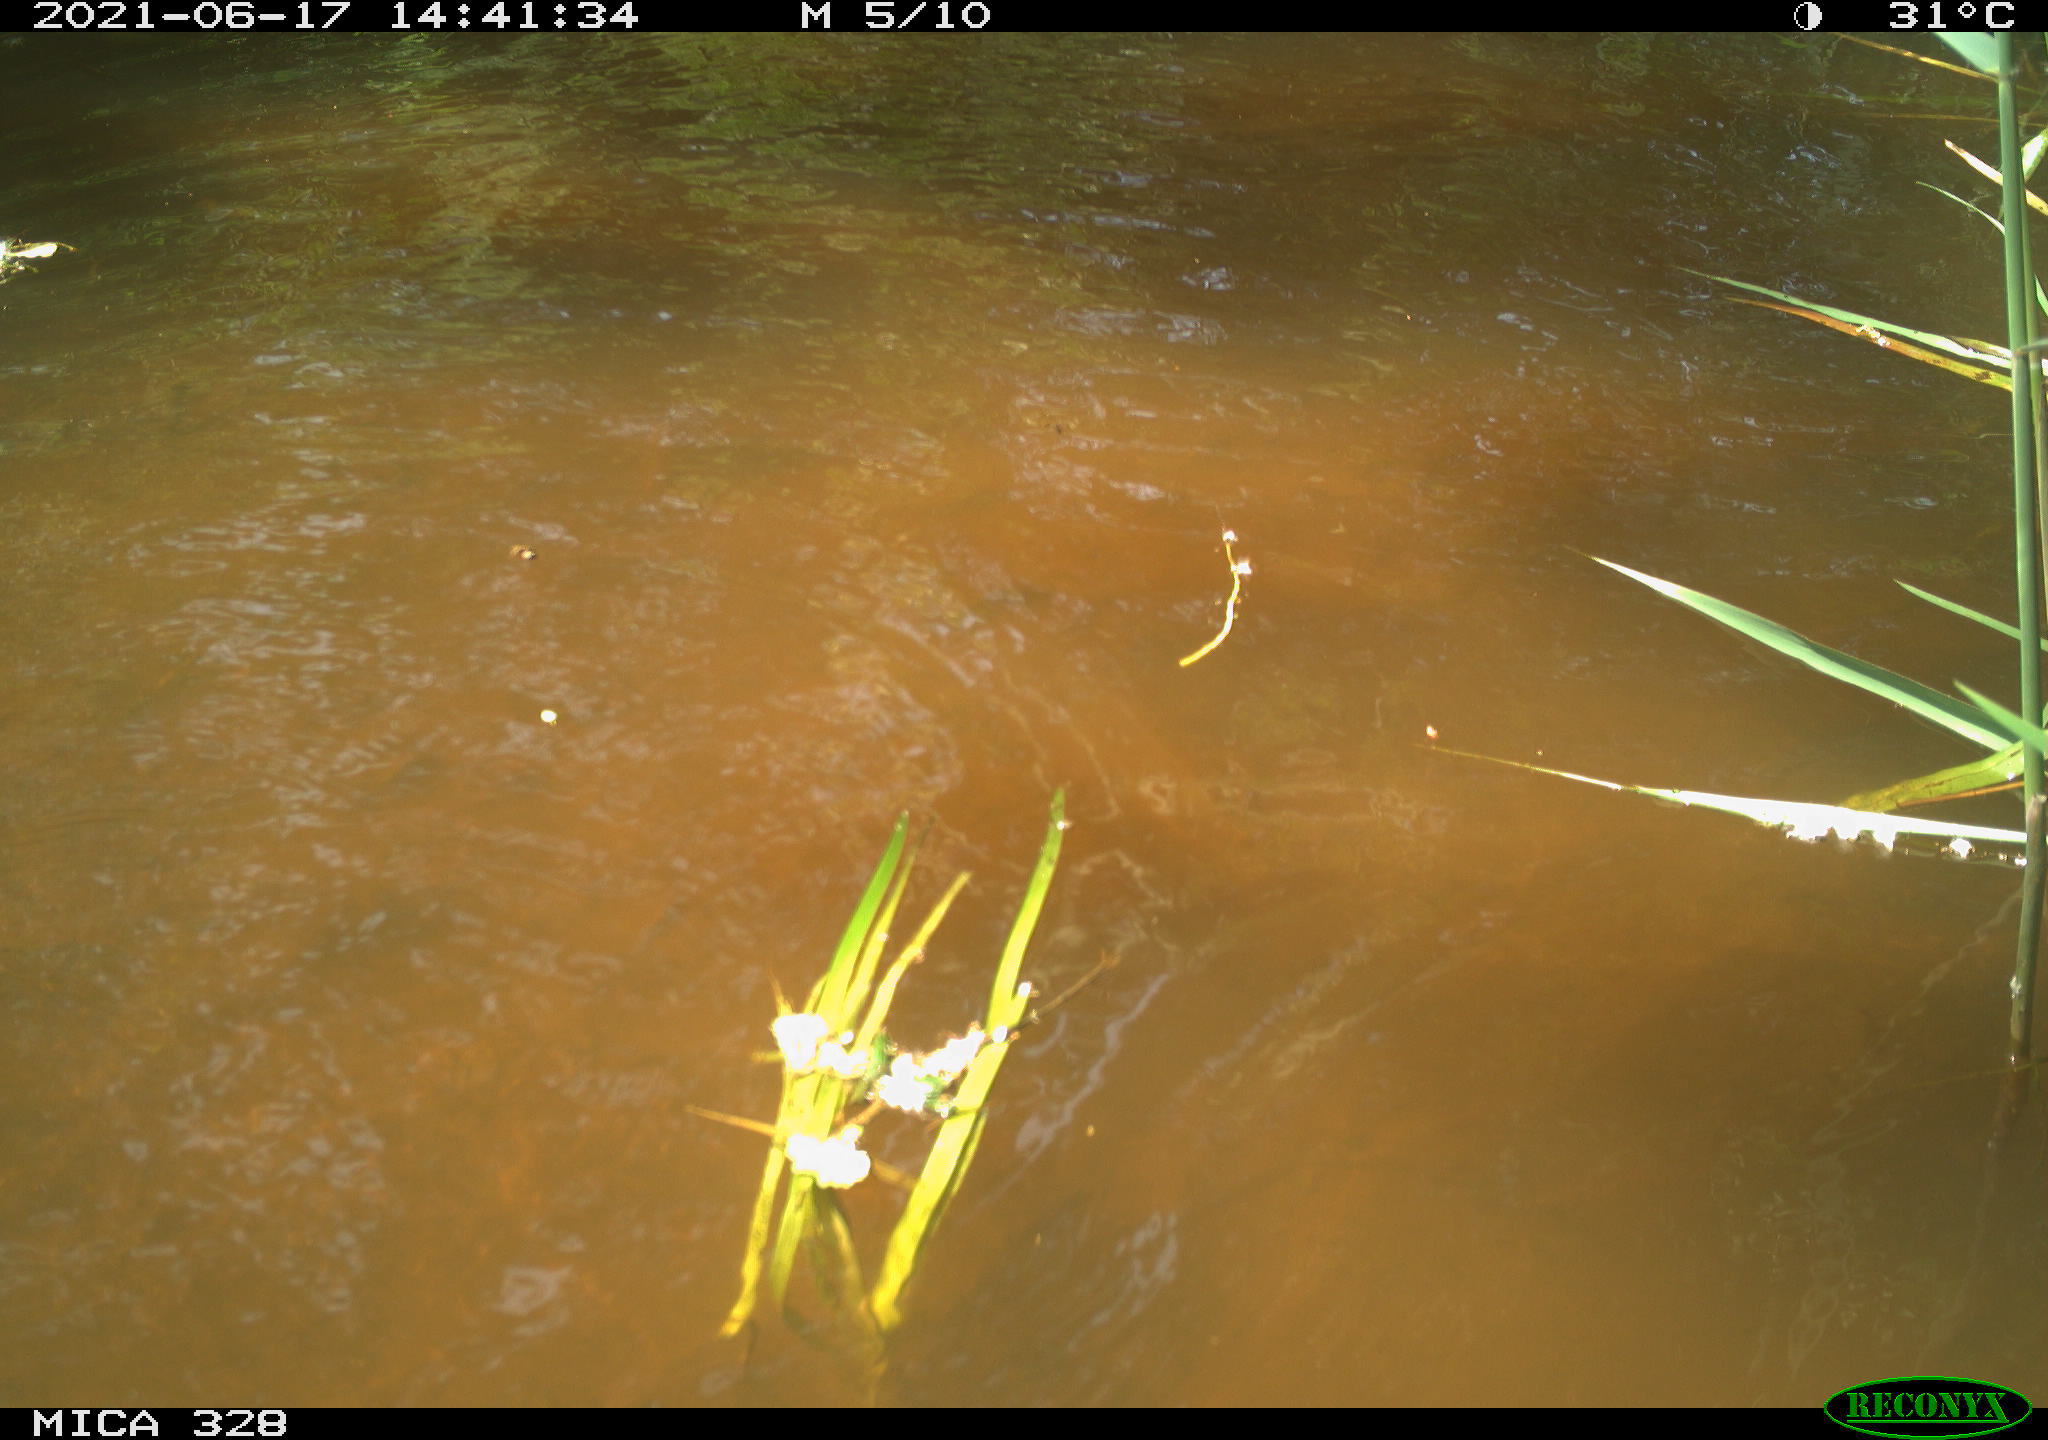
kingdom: Animalia
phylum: Chordata
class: Mammalia
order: Rodentia
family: Cricetidae
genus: Ondatra
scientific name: Ondatra zibethicus
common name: Muskrat
